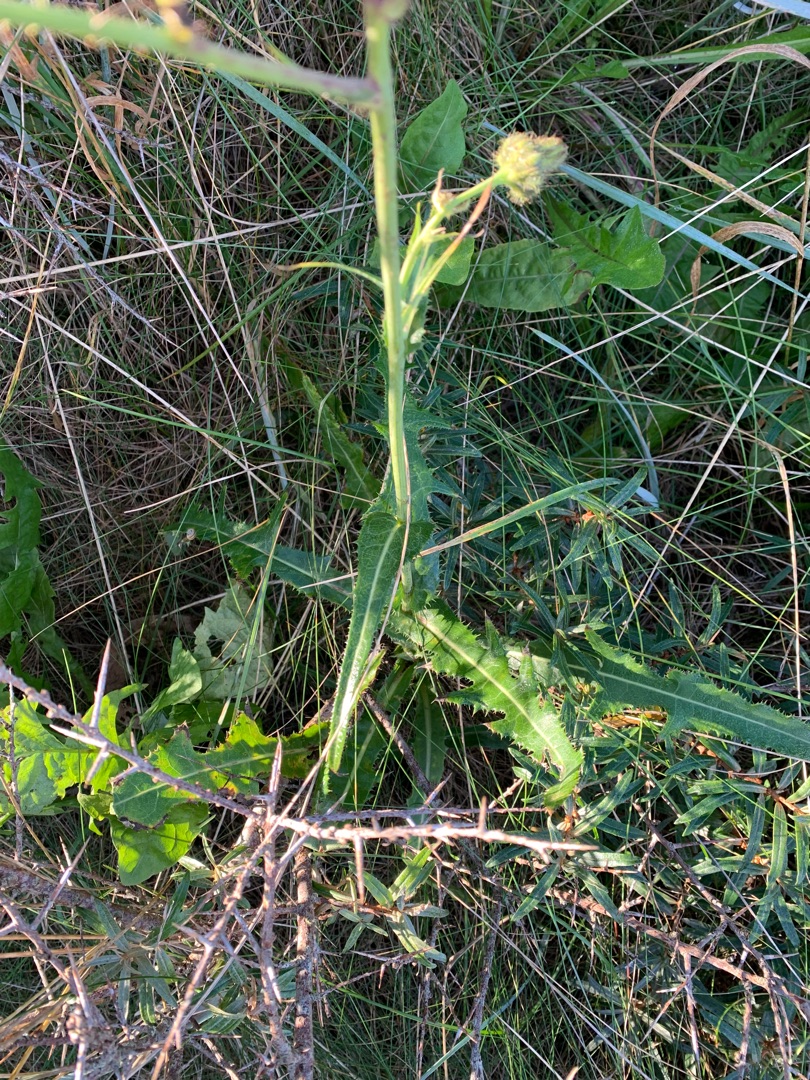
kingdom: Plantae
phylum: Tracheophyta
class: Magnoliopsida
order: Asterales
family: Asteraceae
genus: Sonchus
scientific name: Sonchus arvensis
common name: Ager-svinemælk
